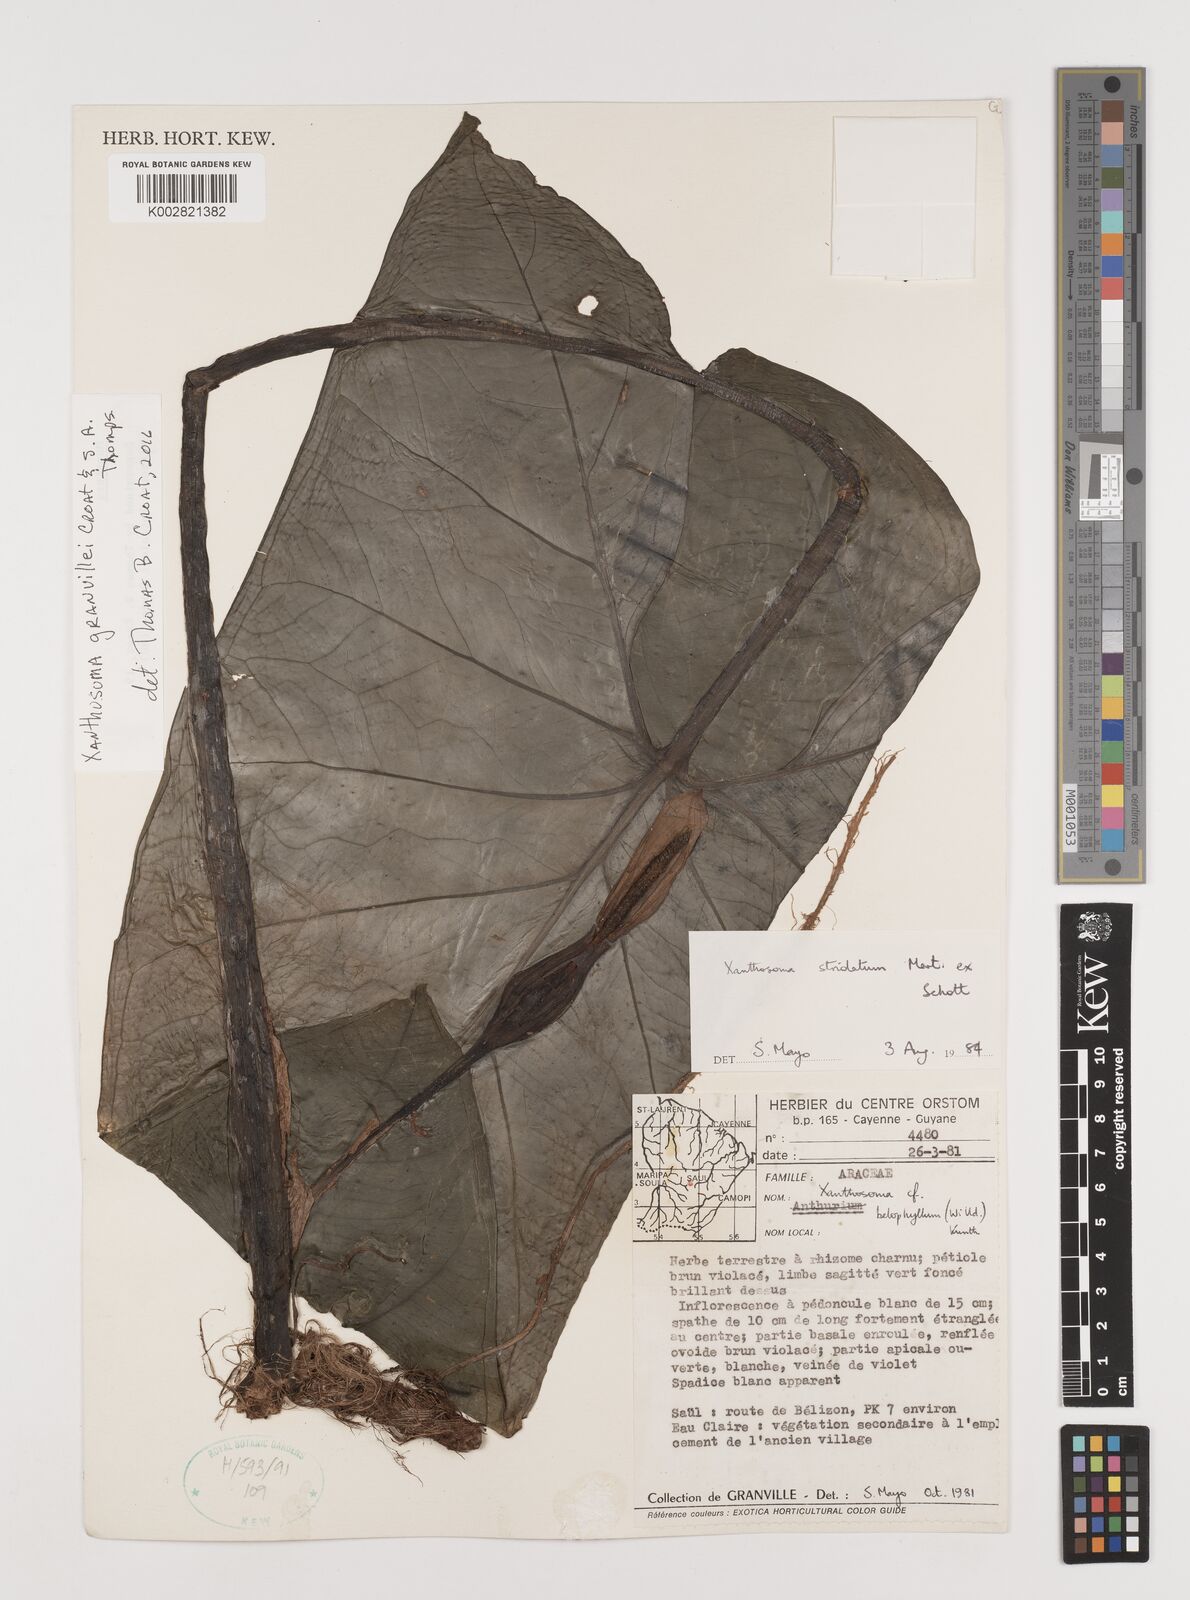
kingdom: Plantae
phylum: Tracheophyta
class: Liliopsida
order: Alismatales
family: Araceae
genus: Xanthosoma
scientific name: Xanthosoma granvillei
